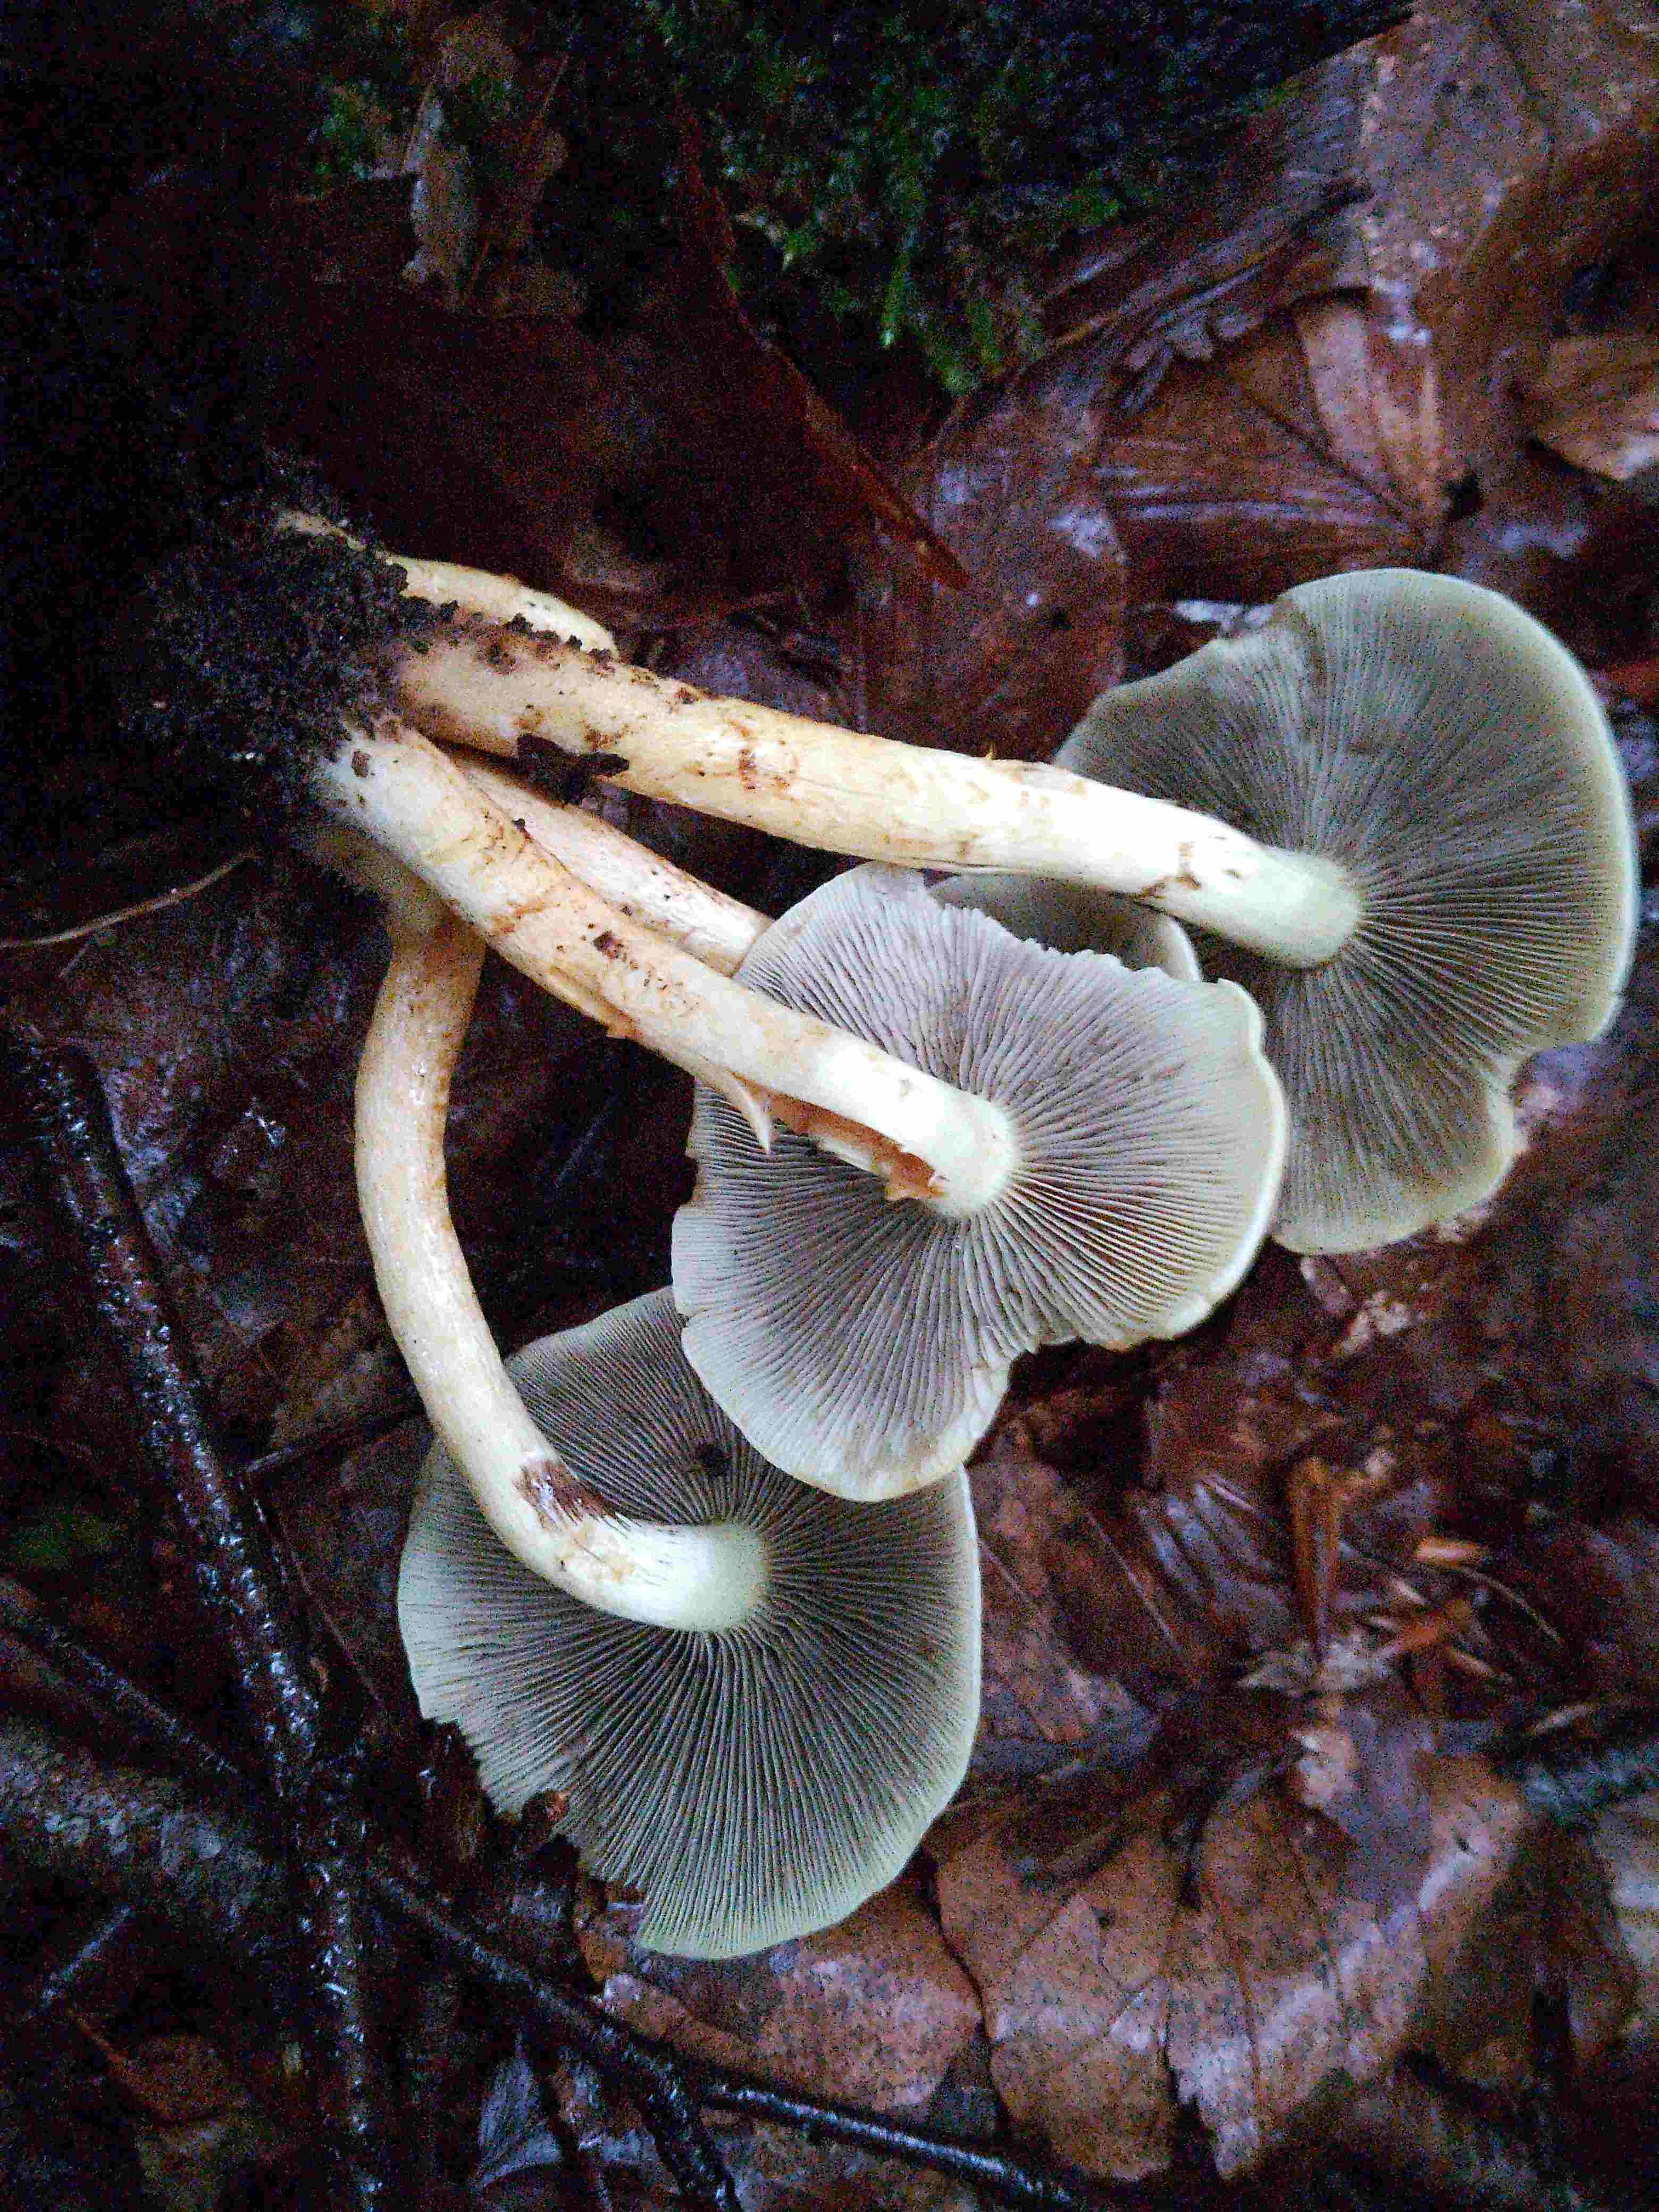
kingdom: Fungi
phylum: Basidiomycota
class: Agaricomycetes
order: Agaricales
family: Strophariaceae
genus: Hypholoma
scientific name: Hypholoma fasciculare
